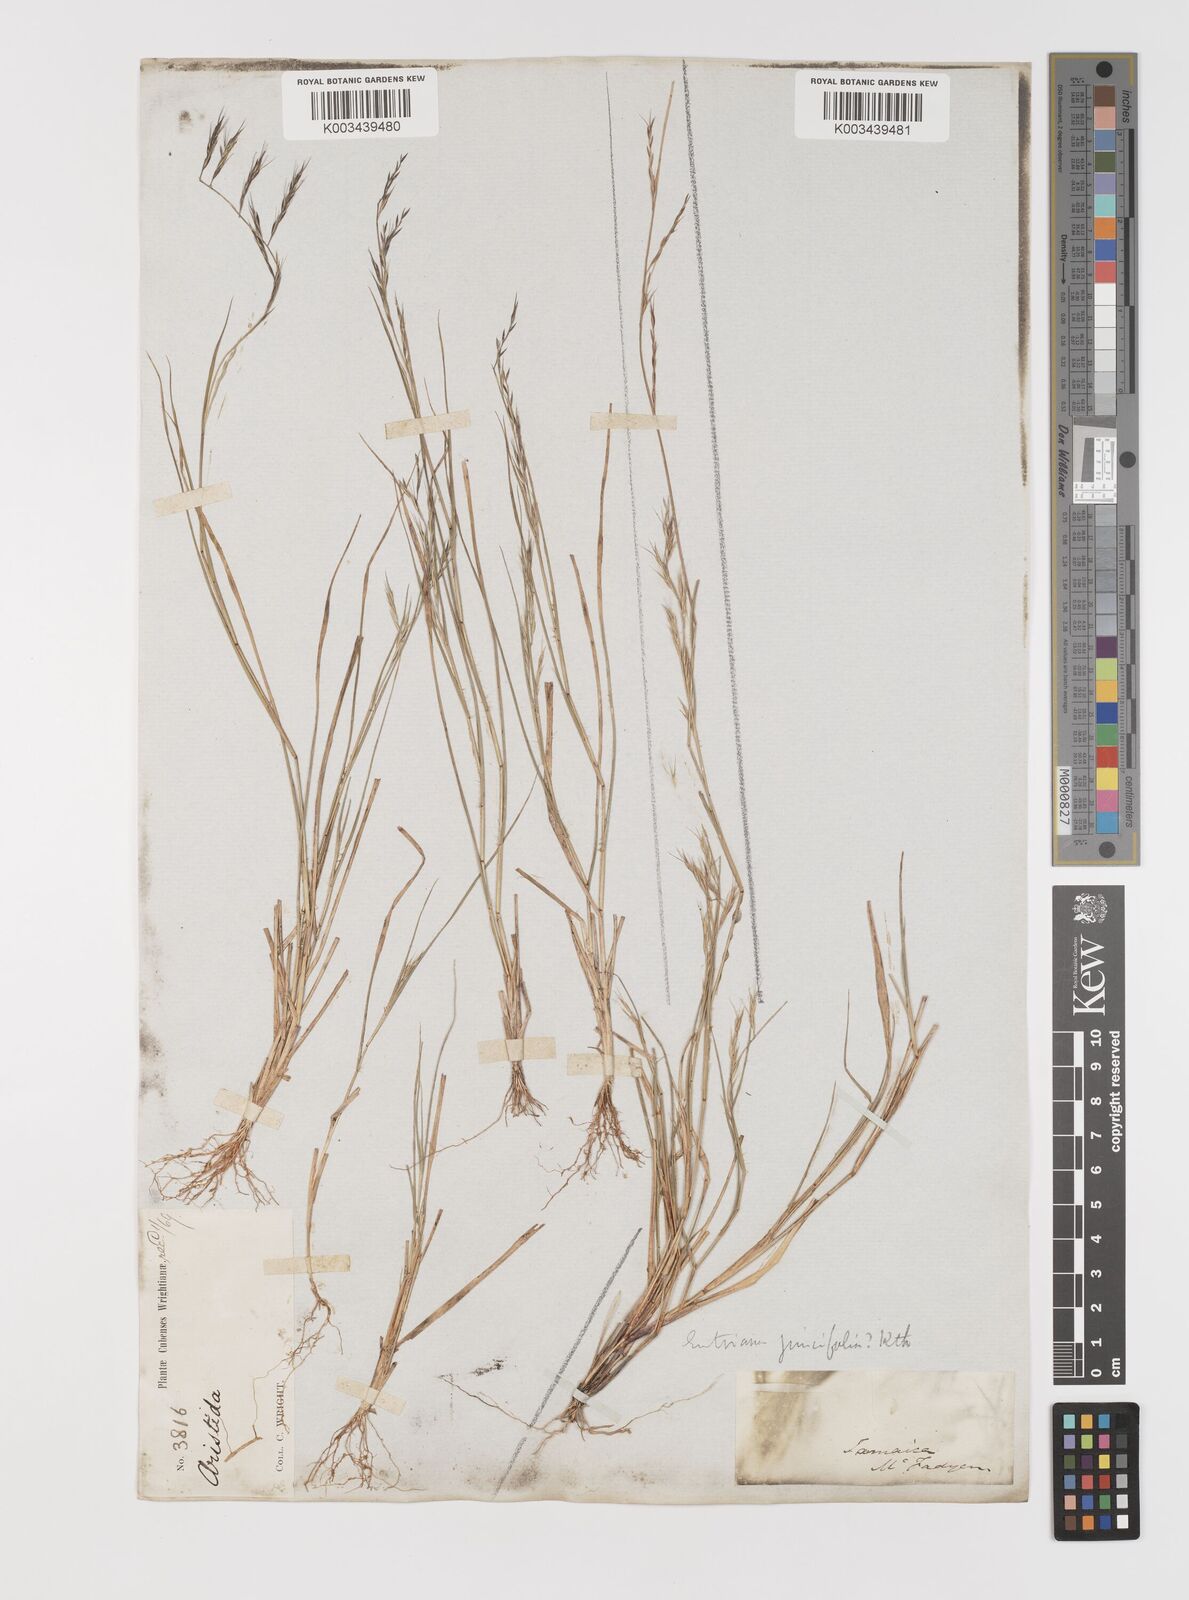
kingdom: Plantae
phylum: Tracheophyta
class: Liliopsida
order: Poales
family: Poaceae
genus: Bouteloua
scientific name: Bouteloua americana
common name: Mule grass
